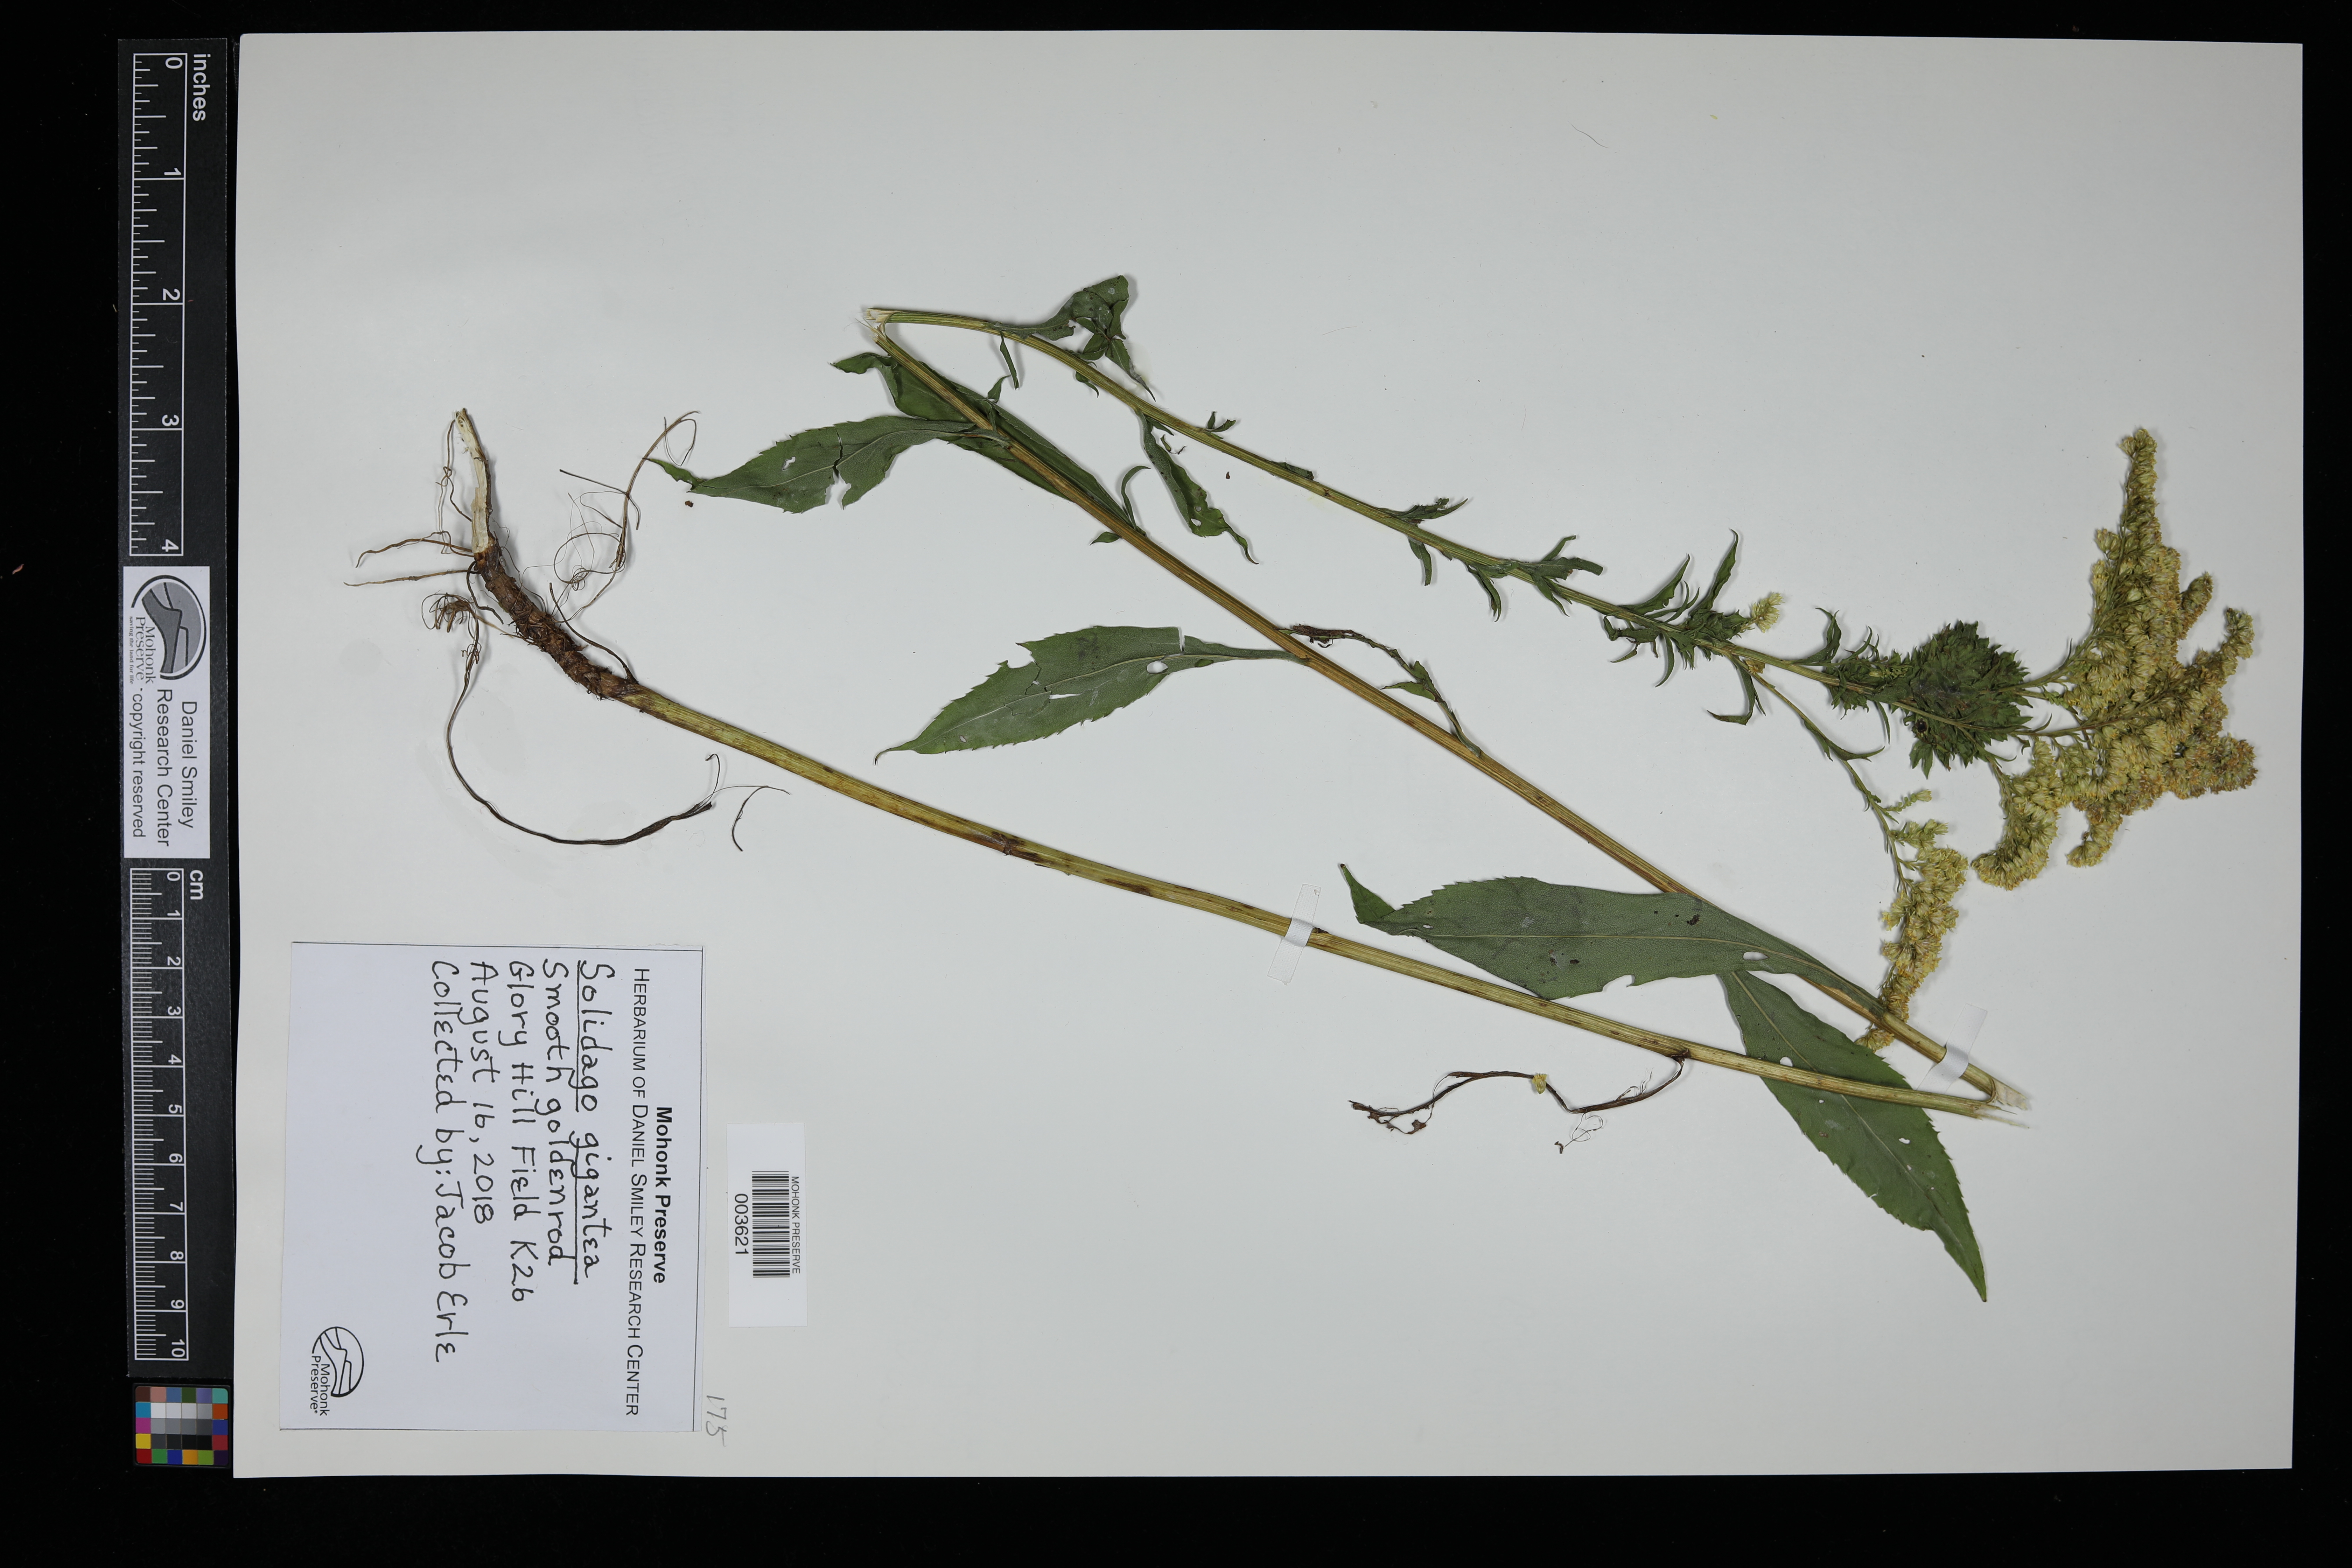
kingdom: Plantae
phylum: Tracheophyta
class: Magnoliopsida
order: Asterales
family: Asteraceae
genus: Solidago
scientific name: Solidago gigantea
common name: Giant goldenrod
